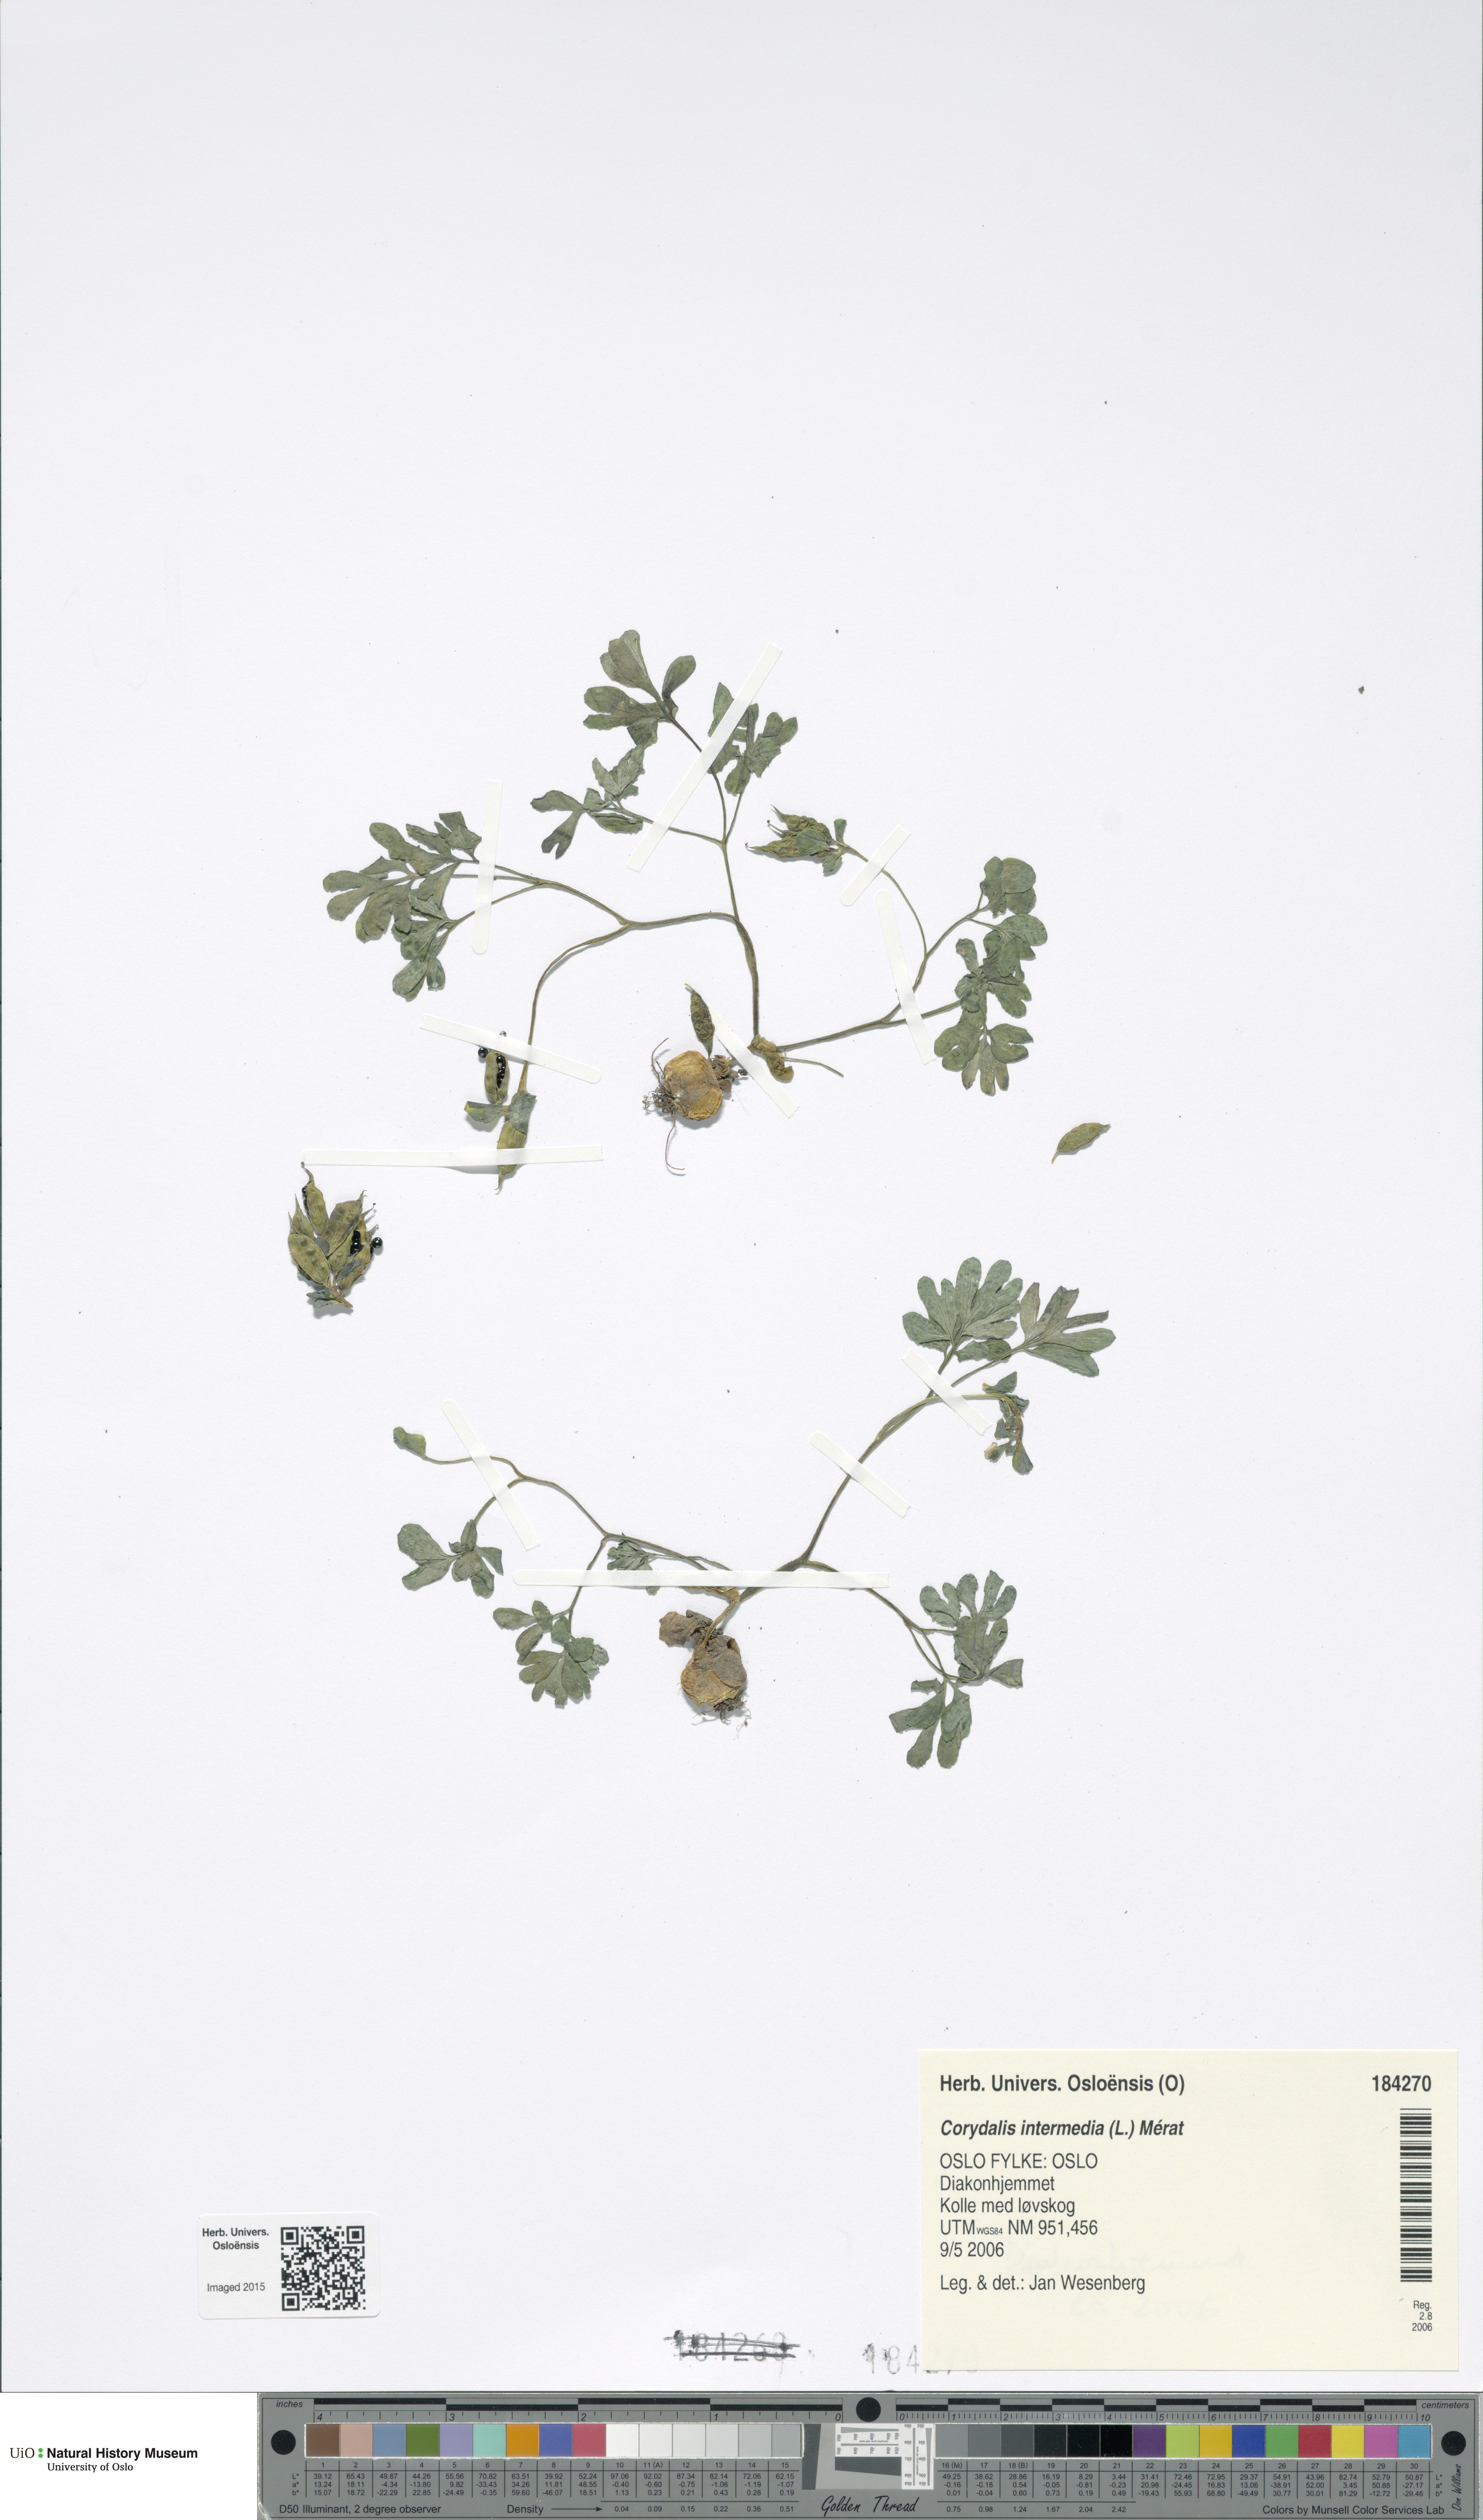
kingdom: Plantae
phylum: Tracheophyta
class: Magnoliopsida
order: Ranunculales
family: Papaveraceae
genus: Corydalis
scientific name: Corydalis intermedia
